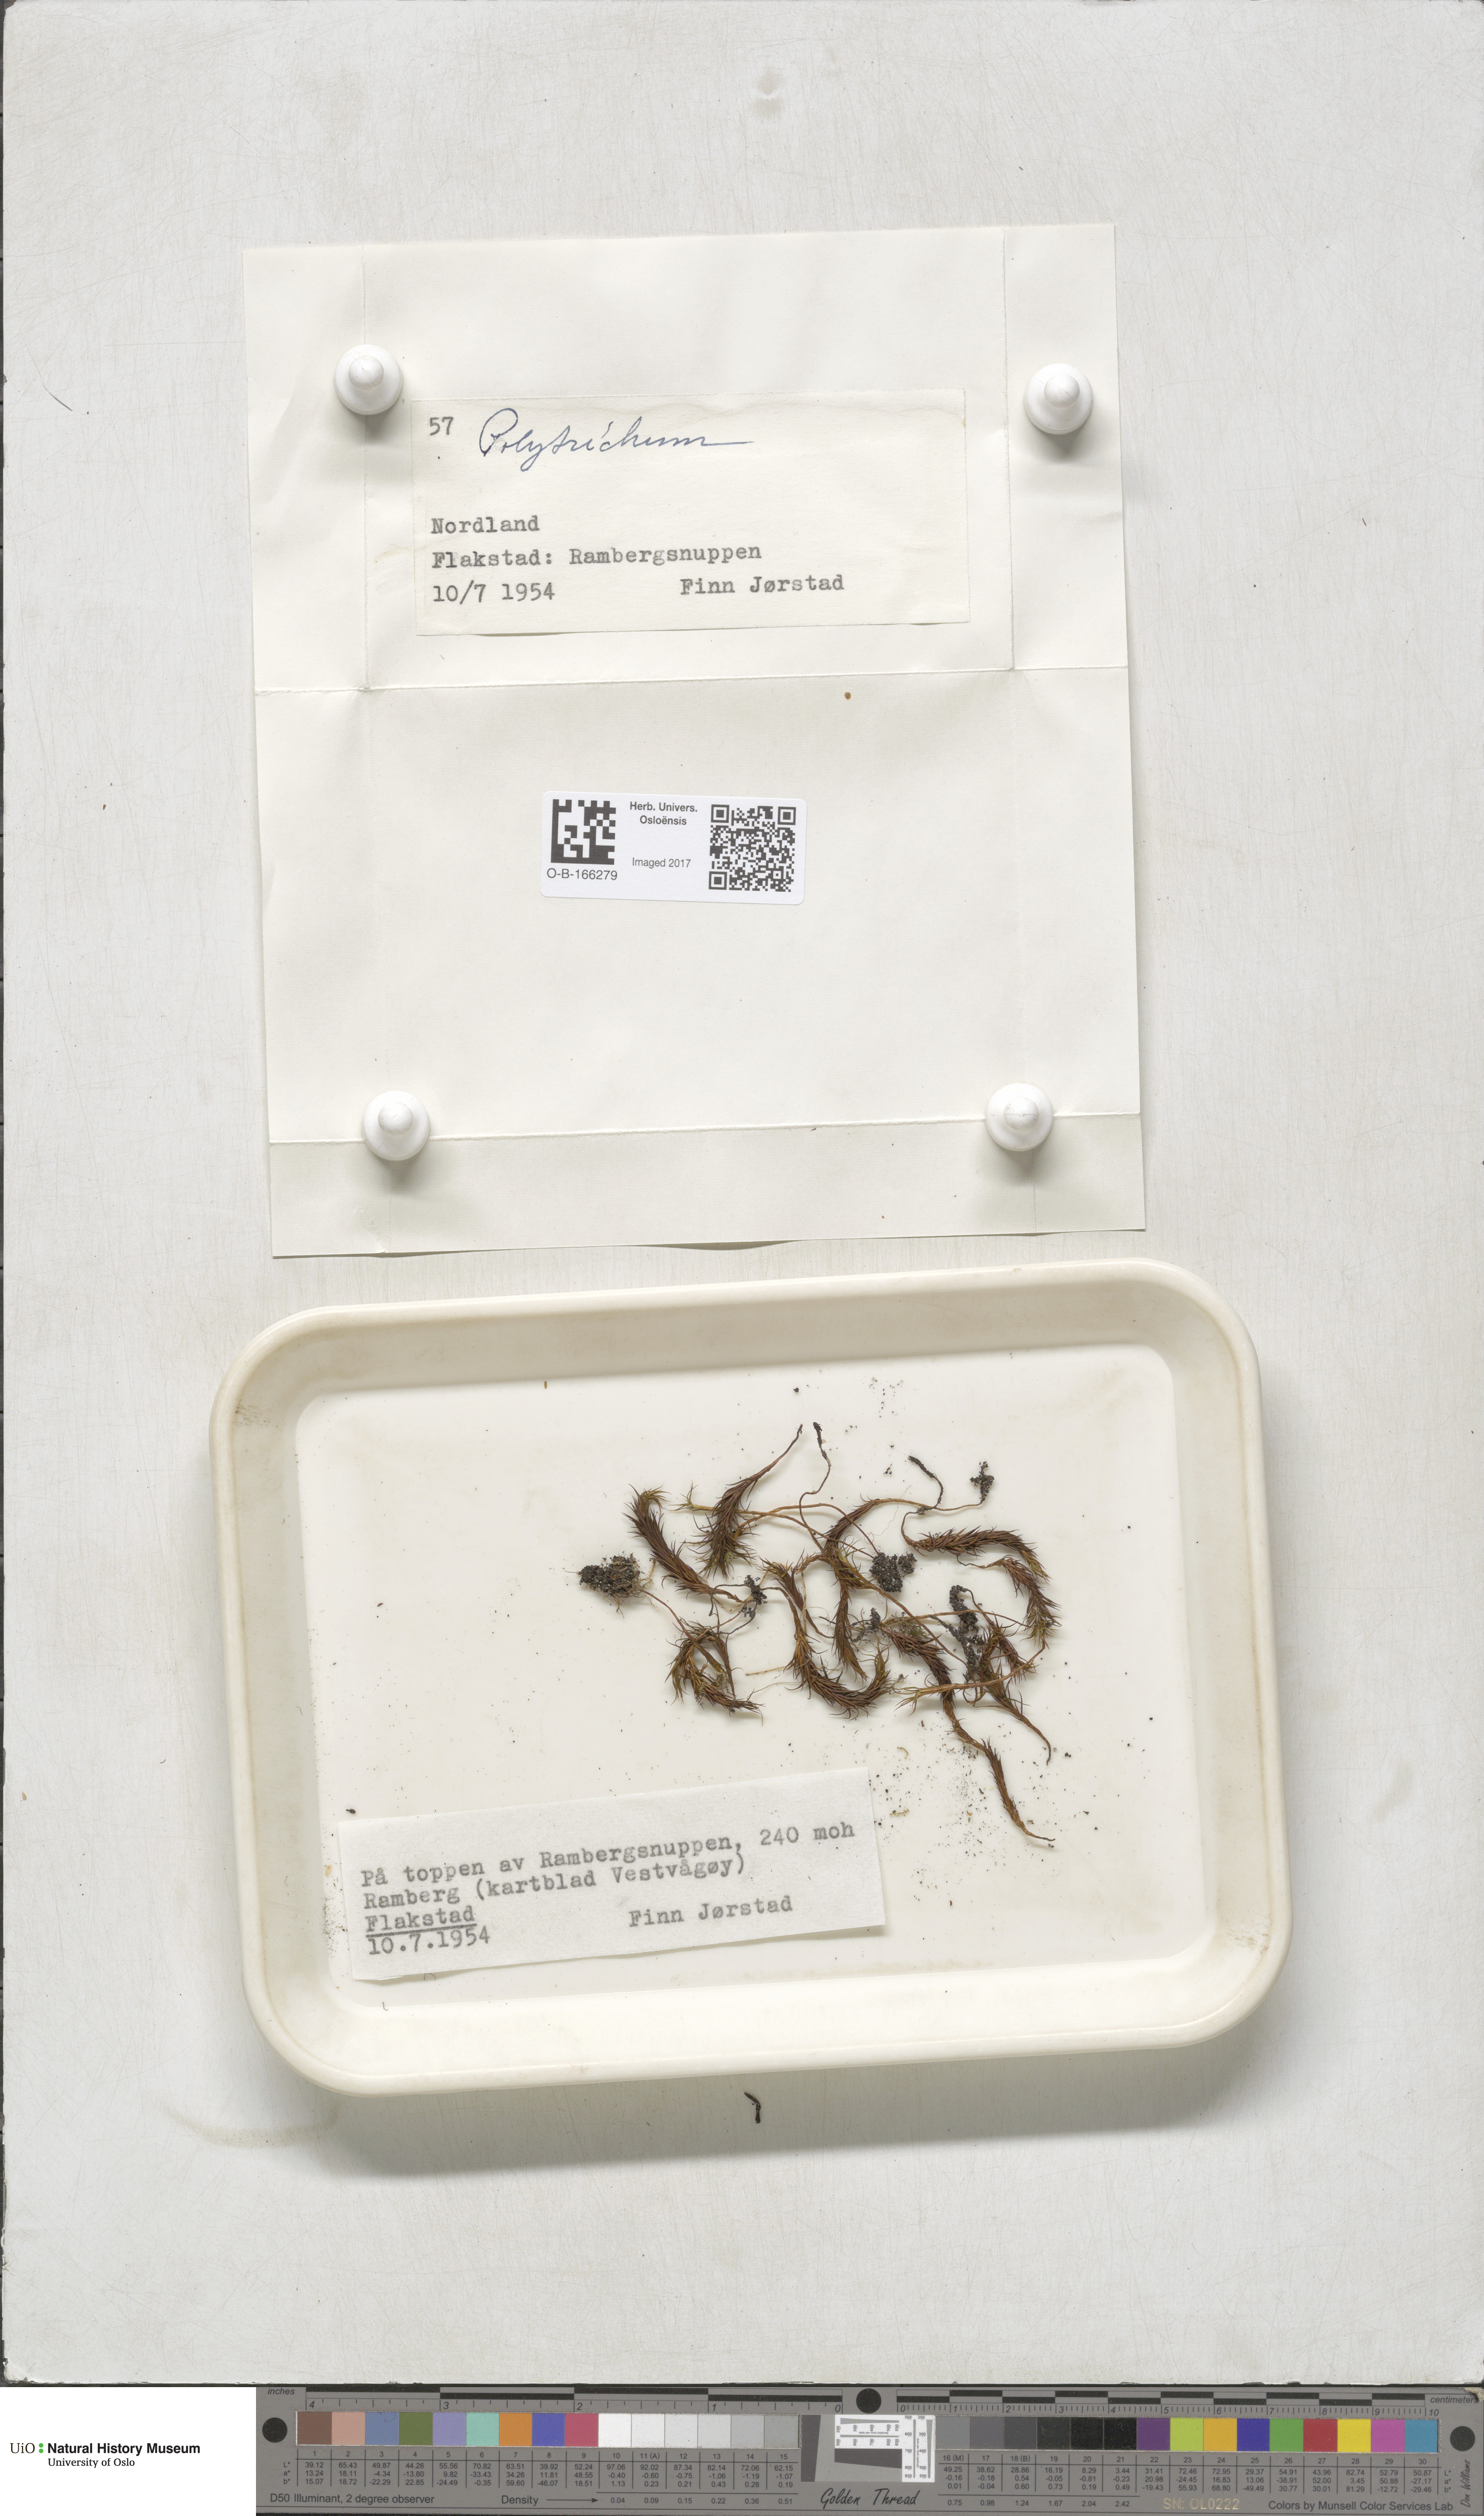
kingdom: Plantae
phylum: Bryophyta
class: Polytrichopsida
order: Polytrichales
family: Polytrichaceae
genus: Polytrichum
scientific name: Polytrichum
